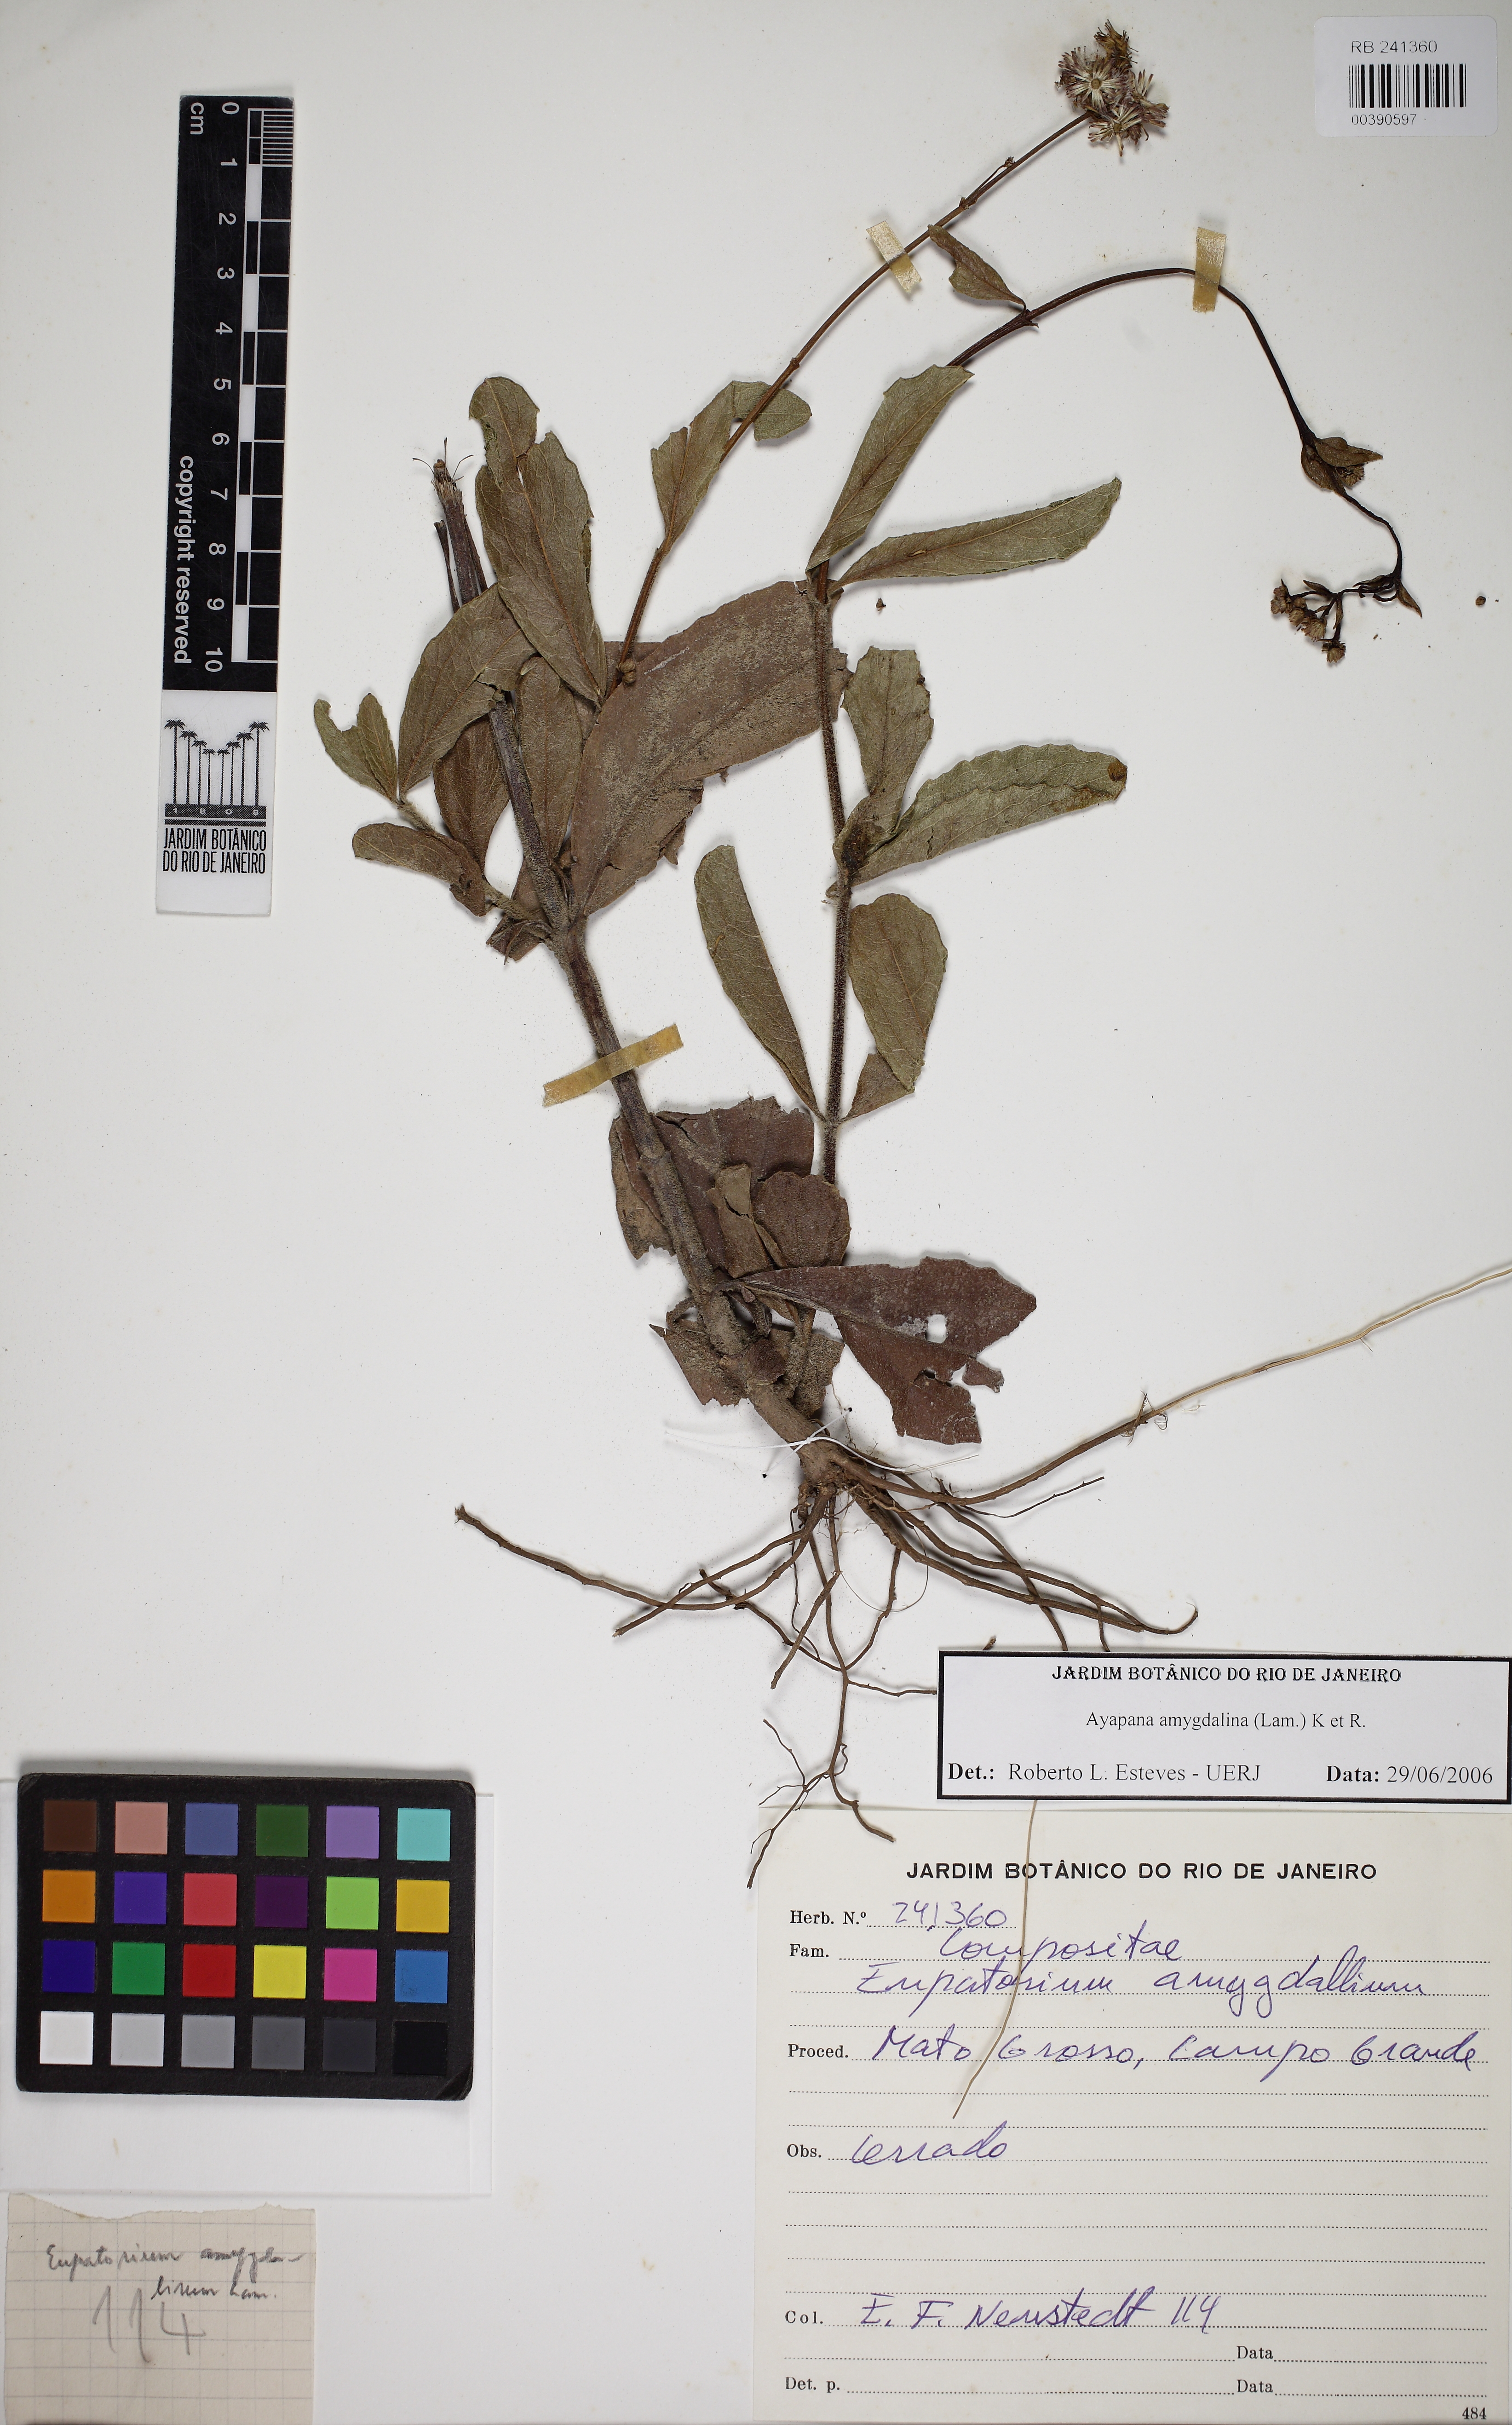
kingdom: Plantae
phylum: Tracheophyta
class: Magnoliopsida
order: Asterales
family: Asteraceae
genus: Ayapana
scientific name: Ayapana amygdalina
